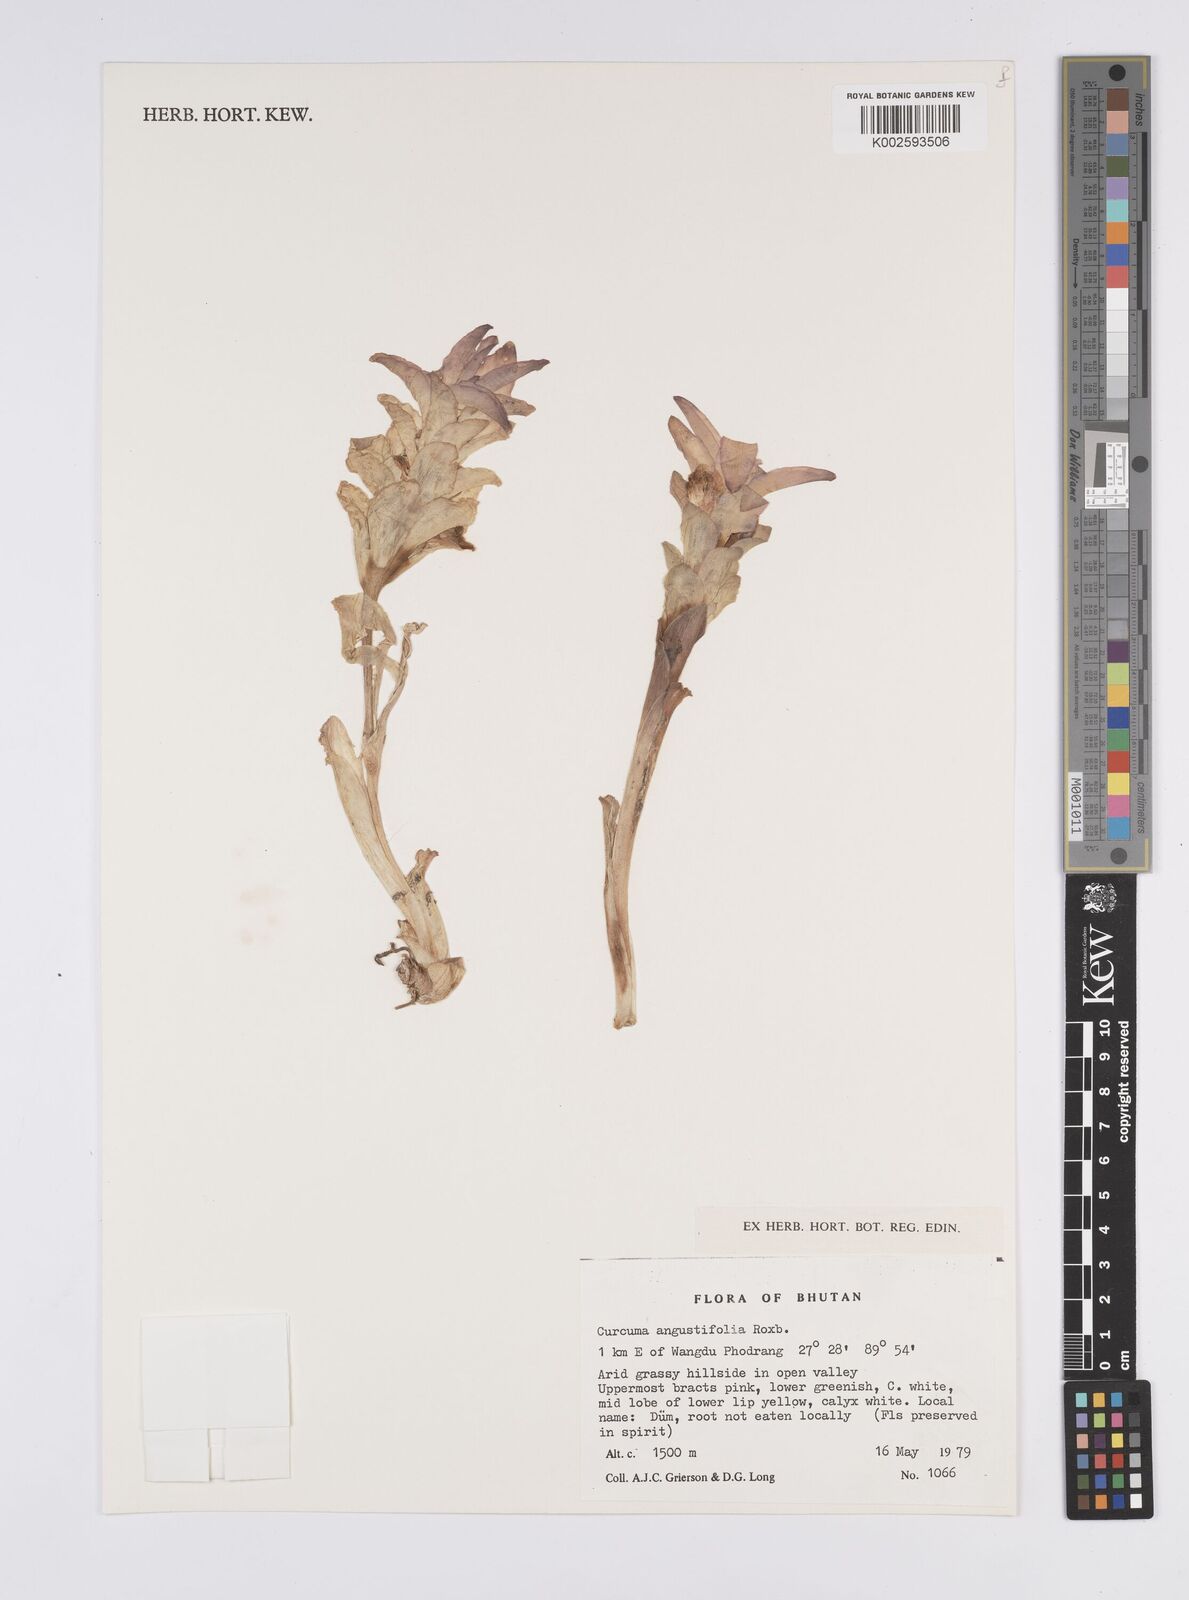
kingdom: Plantae
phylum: Tracheophyta
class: Liliopsida
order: Zingiberales
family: Zingiberaceae
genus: Curcuma
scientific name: Curcuma angustifolia
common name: East indian arrowroot
